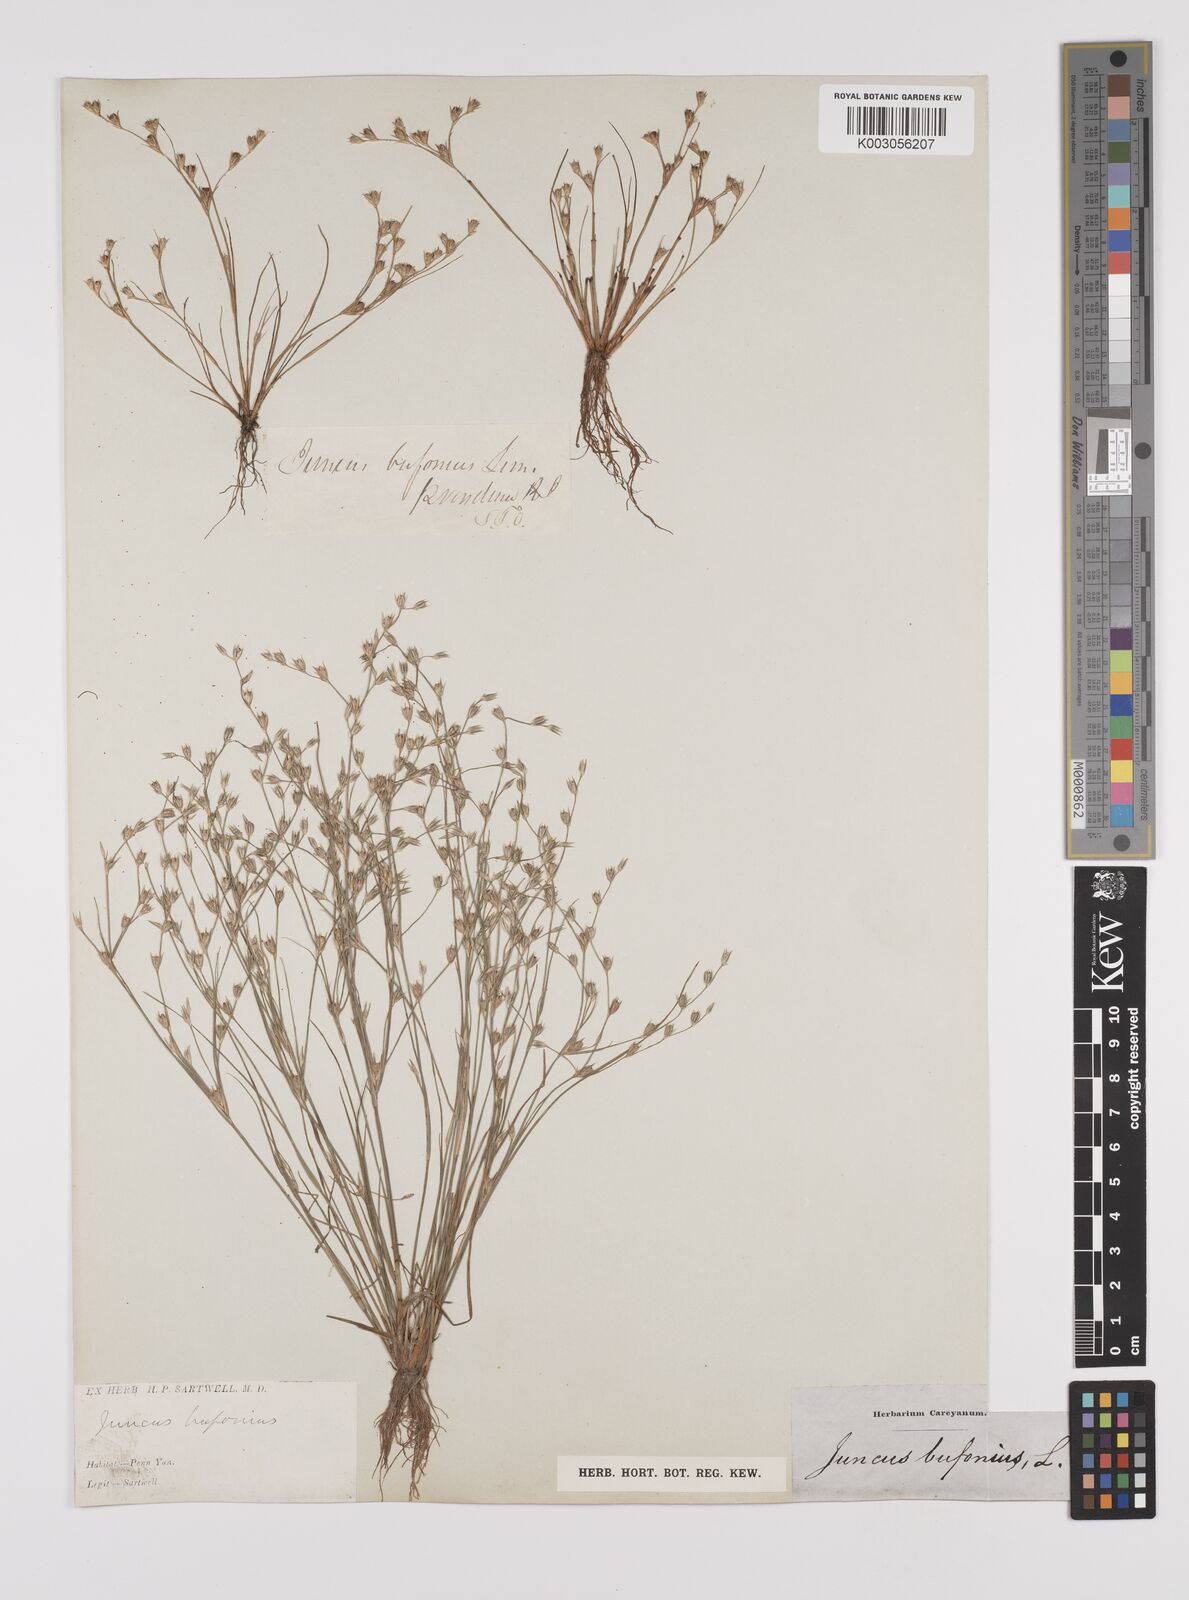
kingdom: Plantae
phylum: Tracheophyta
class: Liliopsida
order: Poales
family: Juncaceae
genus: Juncus
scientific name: Juncus bufonius
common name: Toad rush
